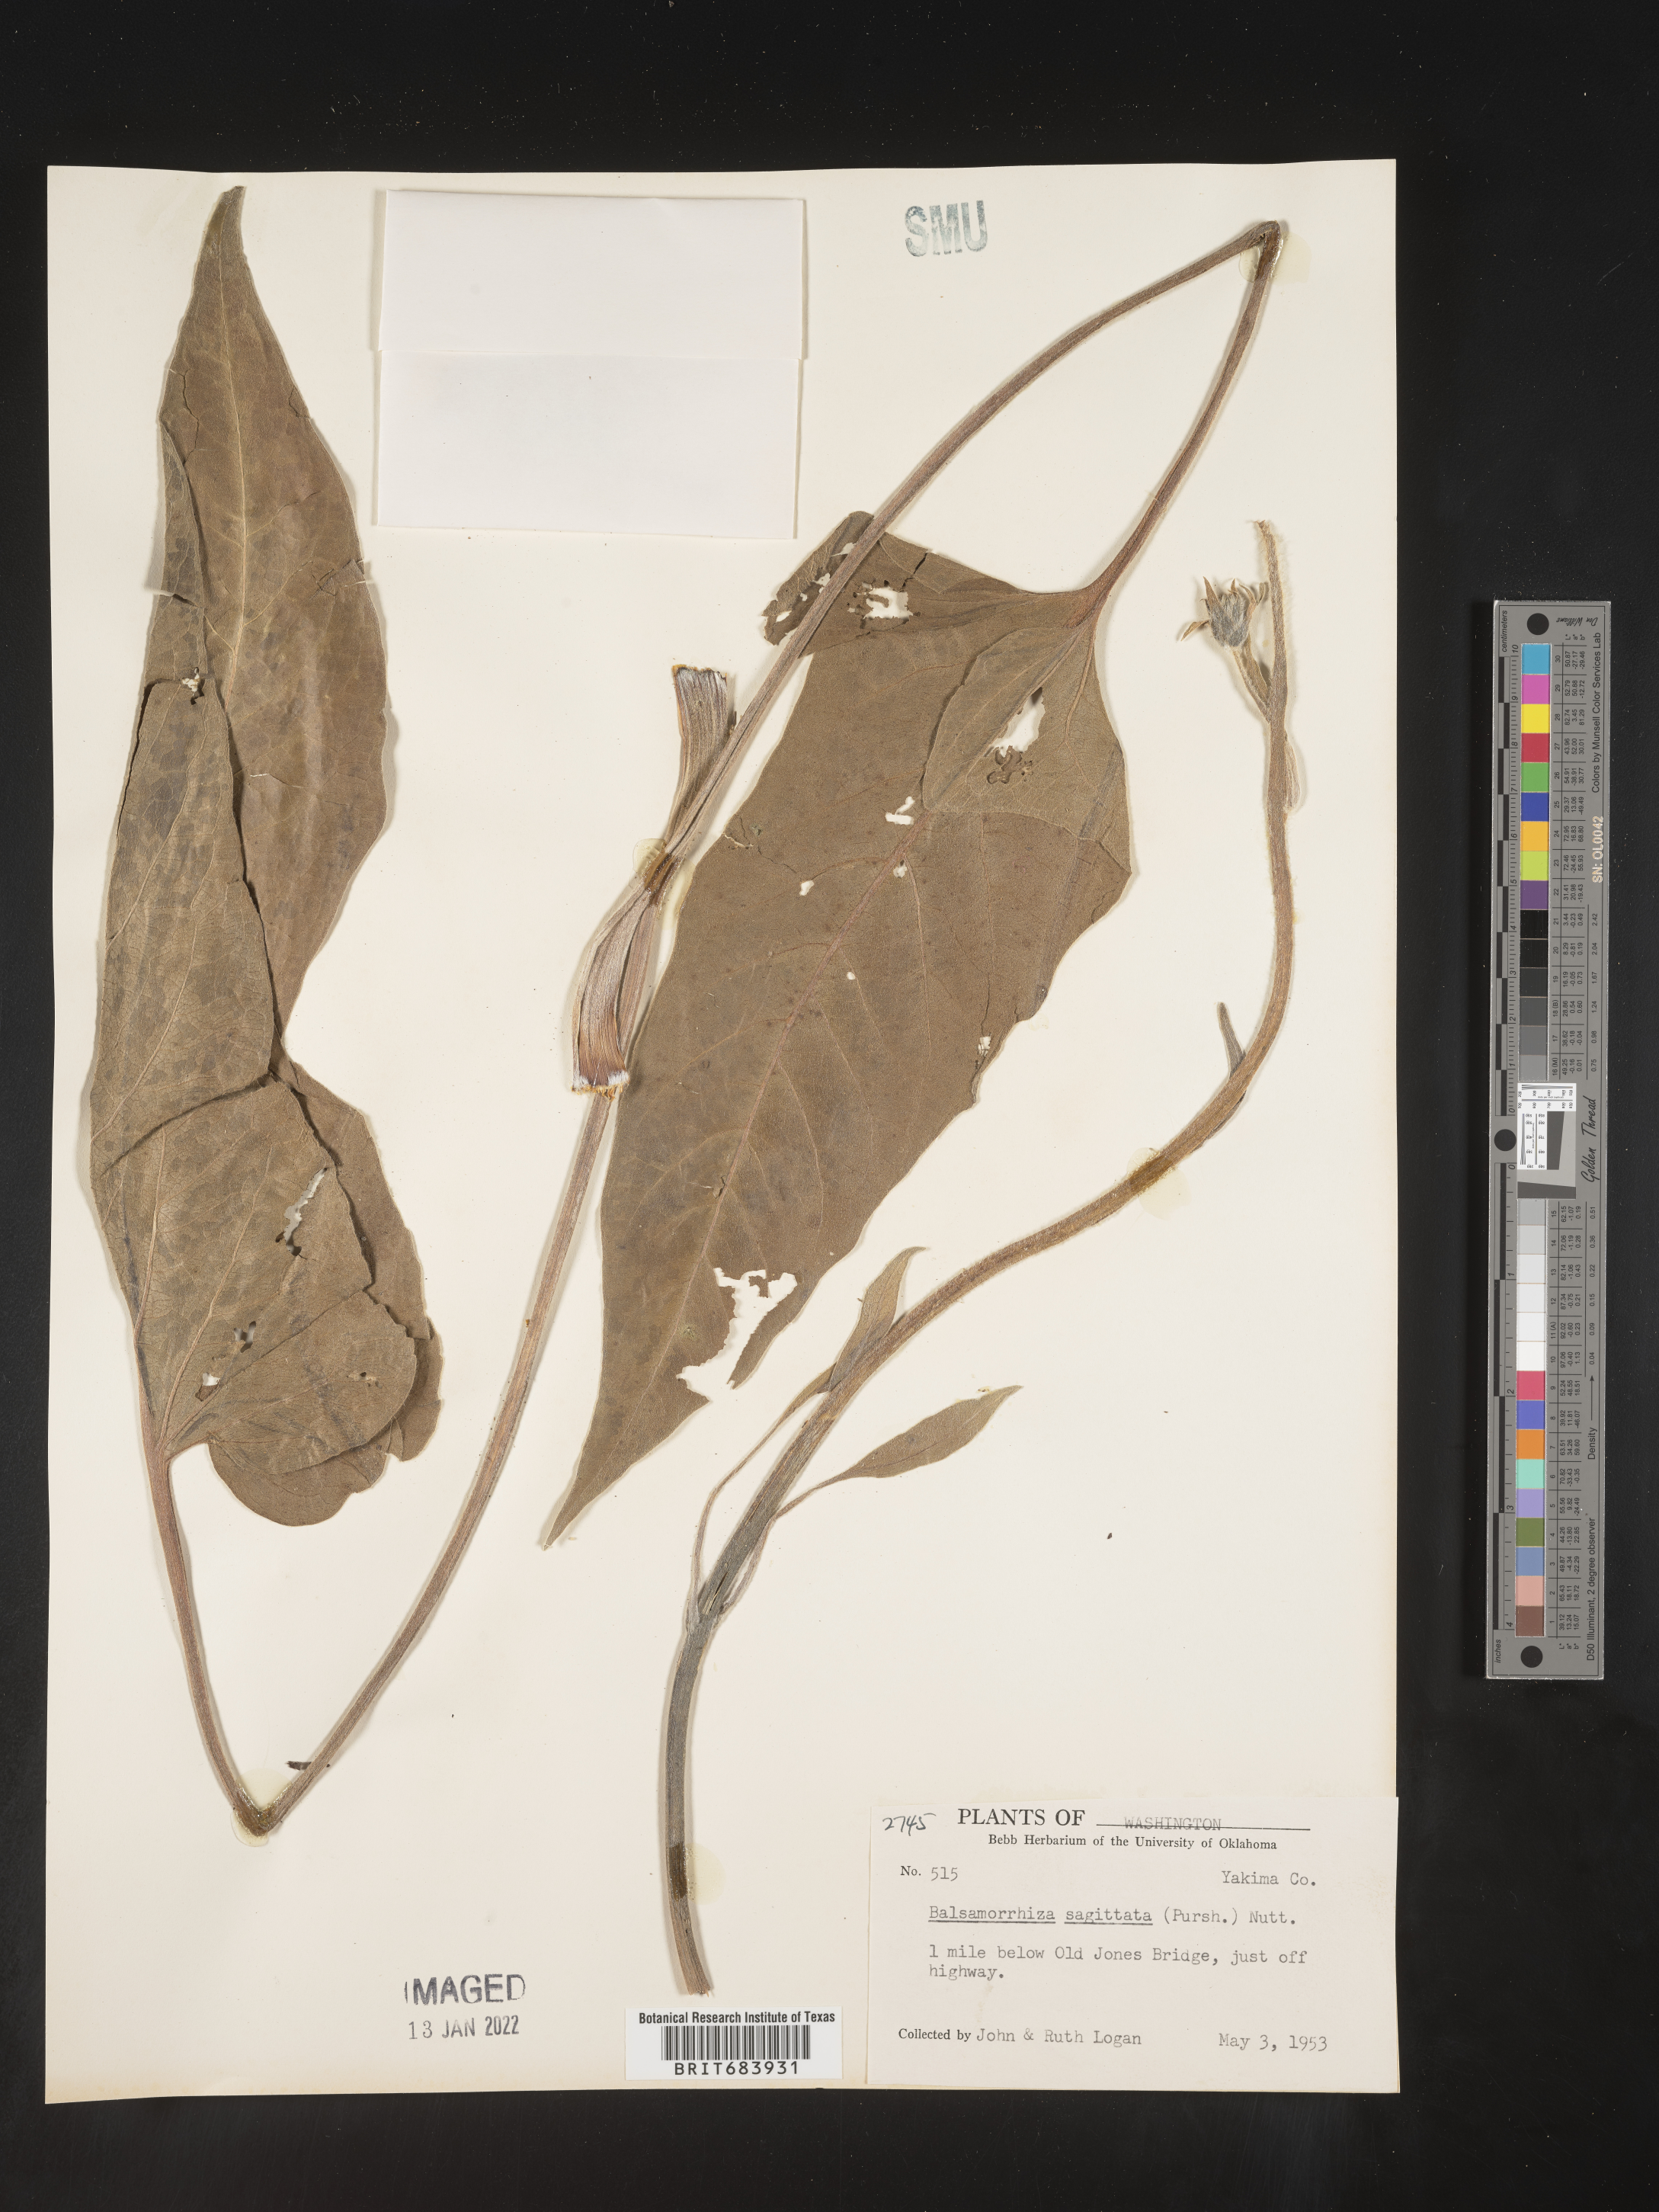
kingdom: Plantae
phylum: Tracheophyta
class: Magnoliopsida
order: Asterales
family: Asteraceae
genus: Wyethia
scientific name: Wyethia sagittata
